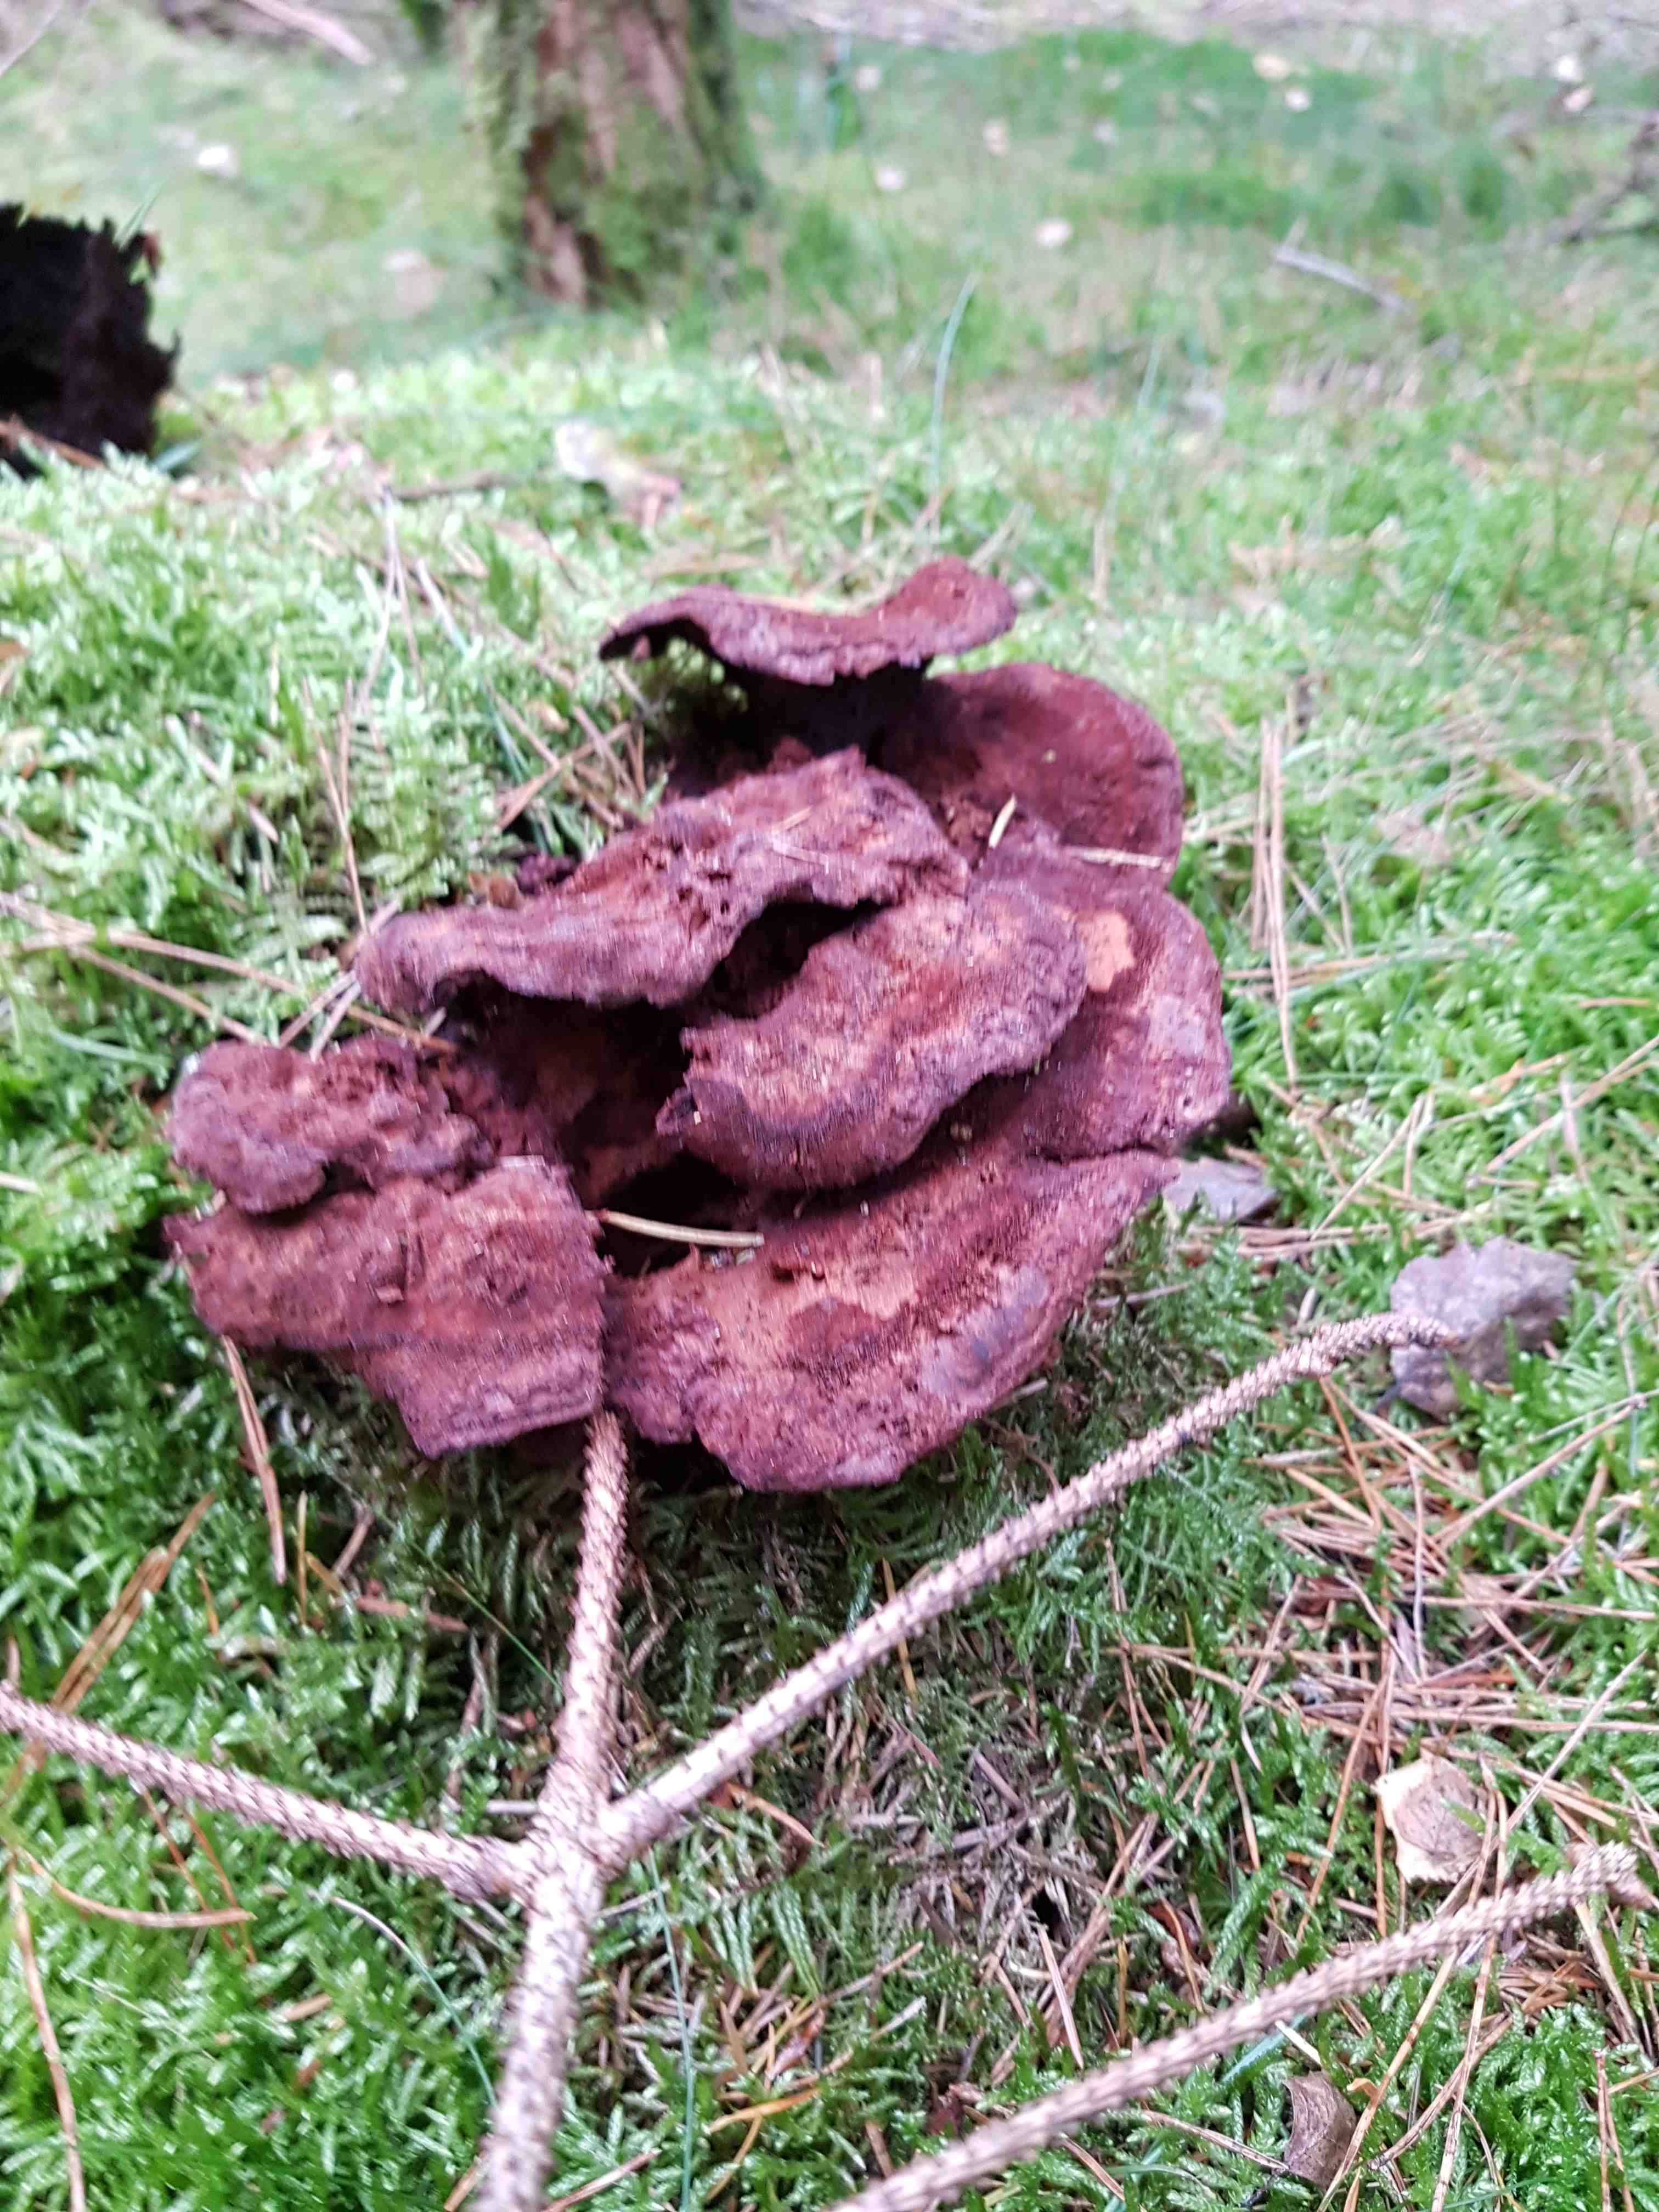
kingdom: Fungi
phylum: Basidiomycota
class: Agaricomycetes
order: Polyporales
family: Laetiporaceae
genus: Phaeolus
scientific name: Phaeolus schweinitzii
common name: brunporesvamp
